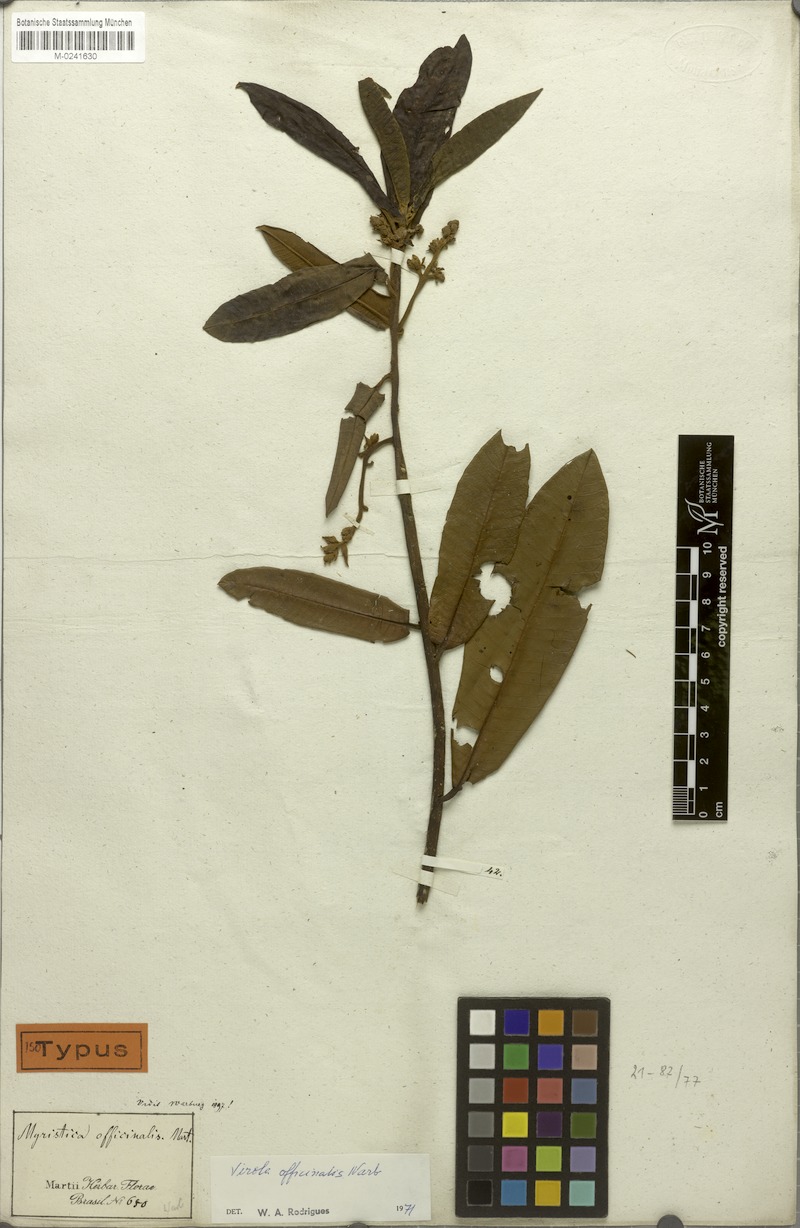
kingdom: Plantae
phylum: Tracheophyta
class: Magnoliopsida
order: Magnoliales
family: Myristicaceae
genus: Virola
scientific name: Virola officinalis
